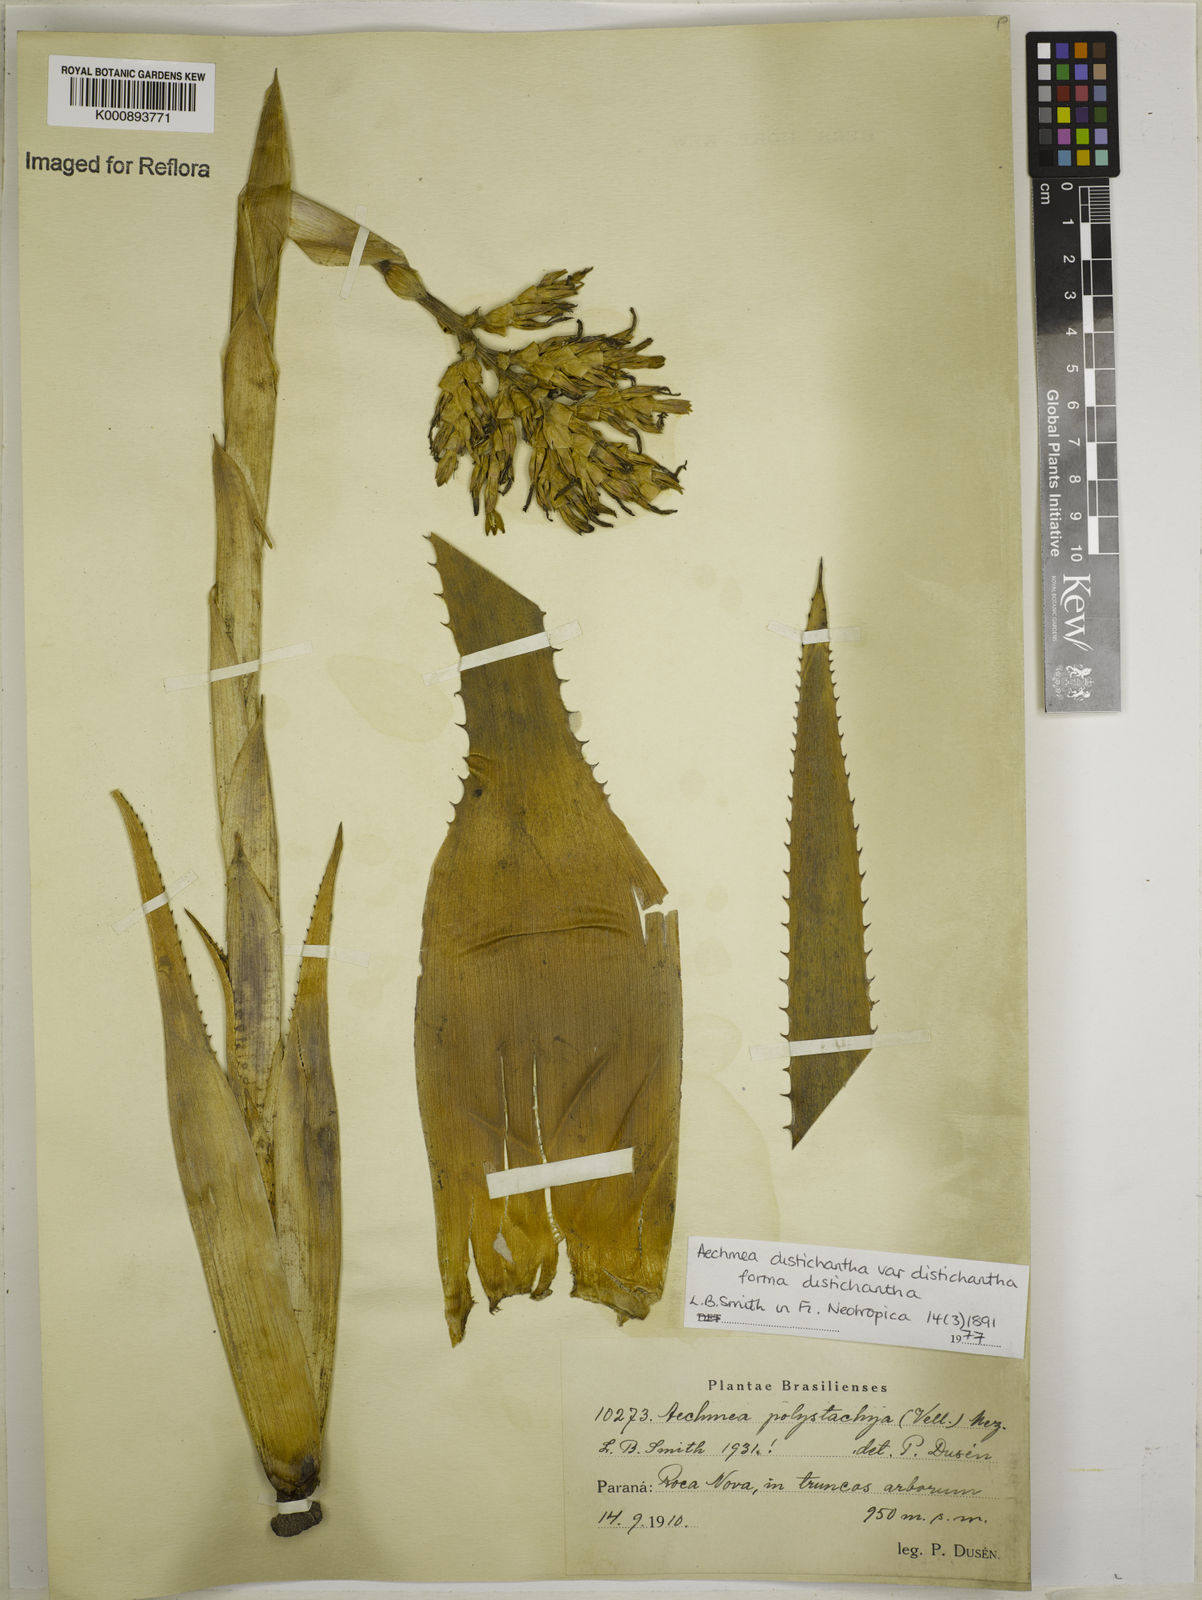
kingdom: Plantae
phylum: Tracheophyta
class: Liliopsida
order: Poales
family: Bromeliaceae
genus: Aechmea
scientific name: Aechmea distichantha
